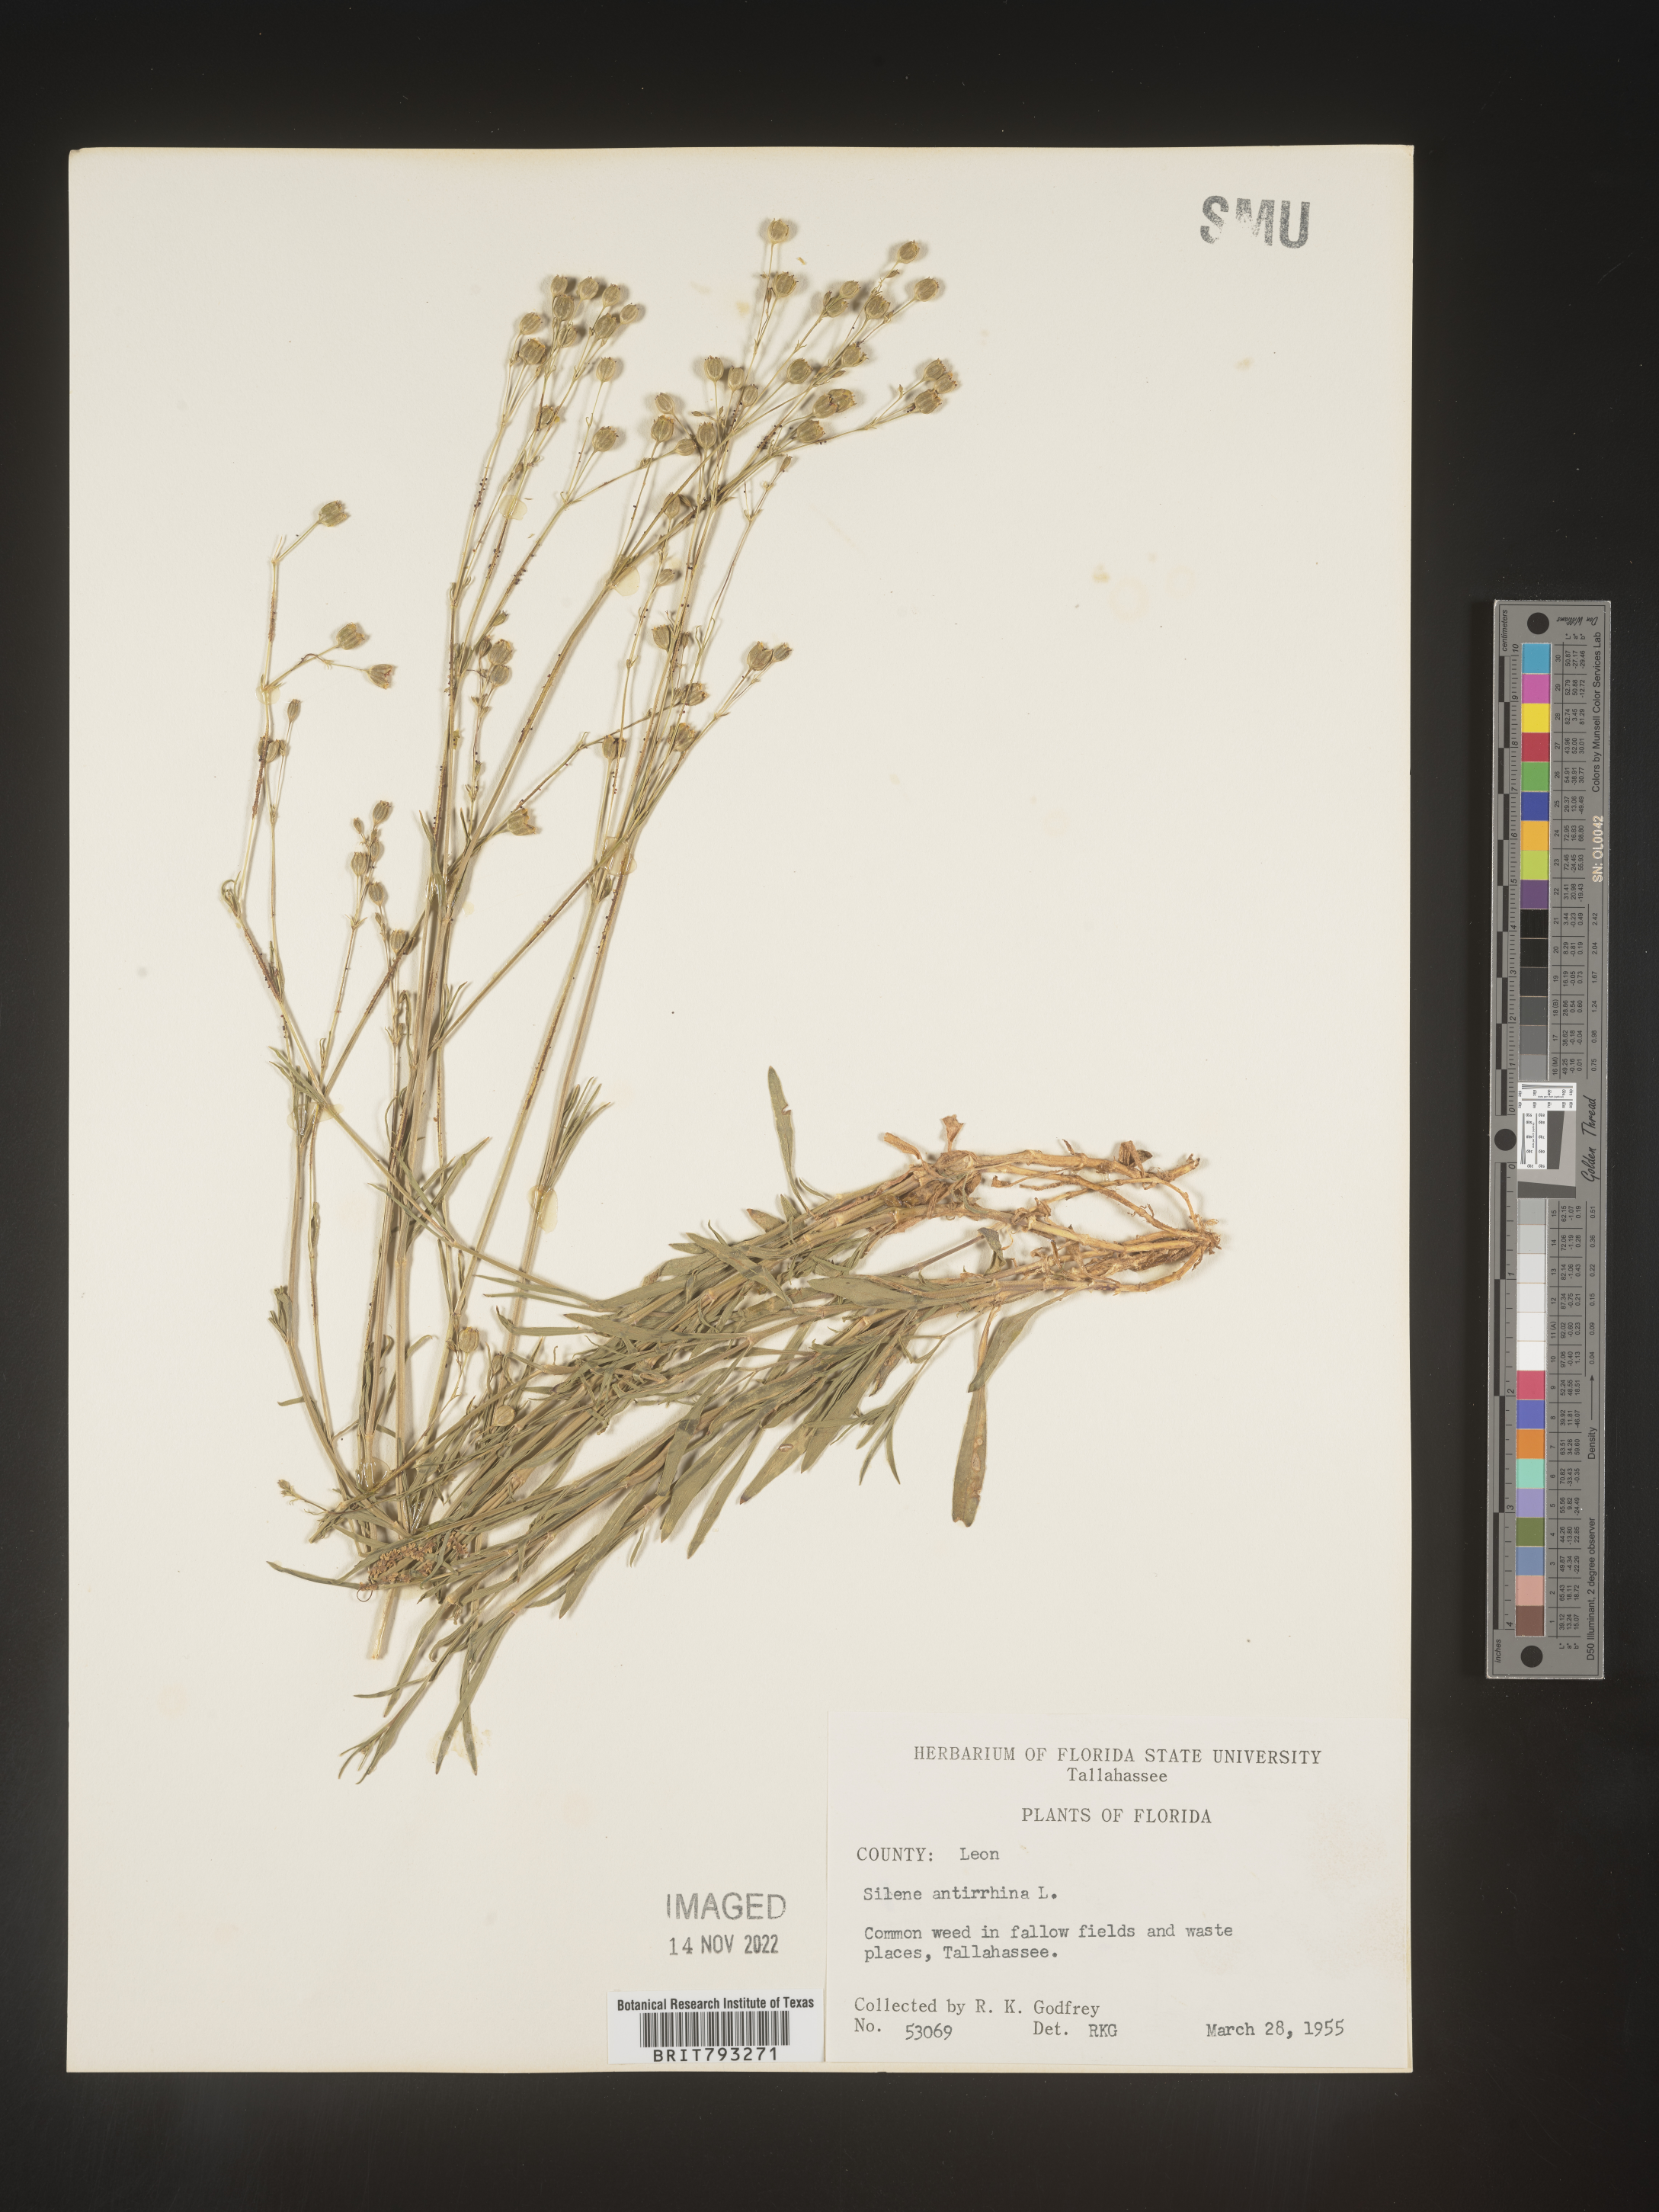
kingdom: Plantae
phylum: Tracheophyta
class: Magnoliopsida
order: Caryophyllales
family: Caryophyllaceae
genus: Silene
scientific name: Silene antirrhina
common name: Sleepy catchfly
